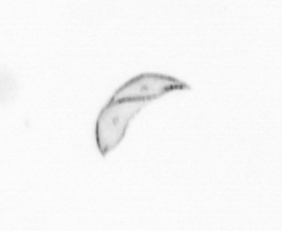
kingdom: Chromista
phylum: Ochrophyta
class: Bacillariophyceae
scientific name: Bacillariophyceae
